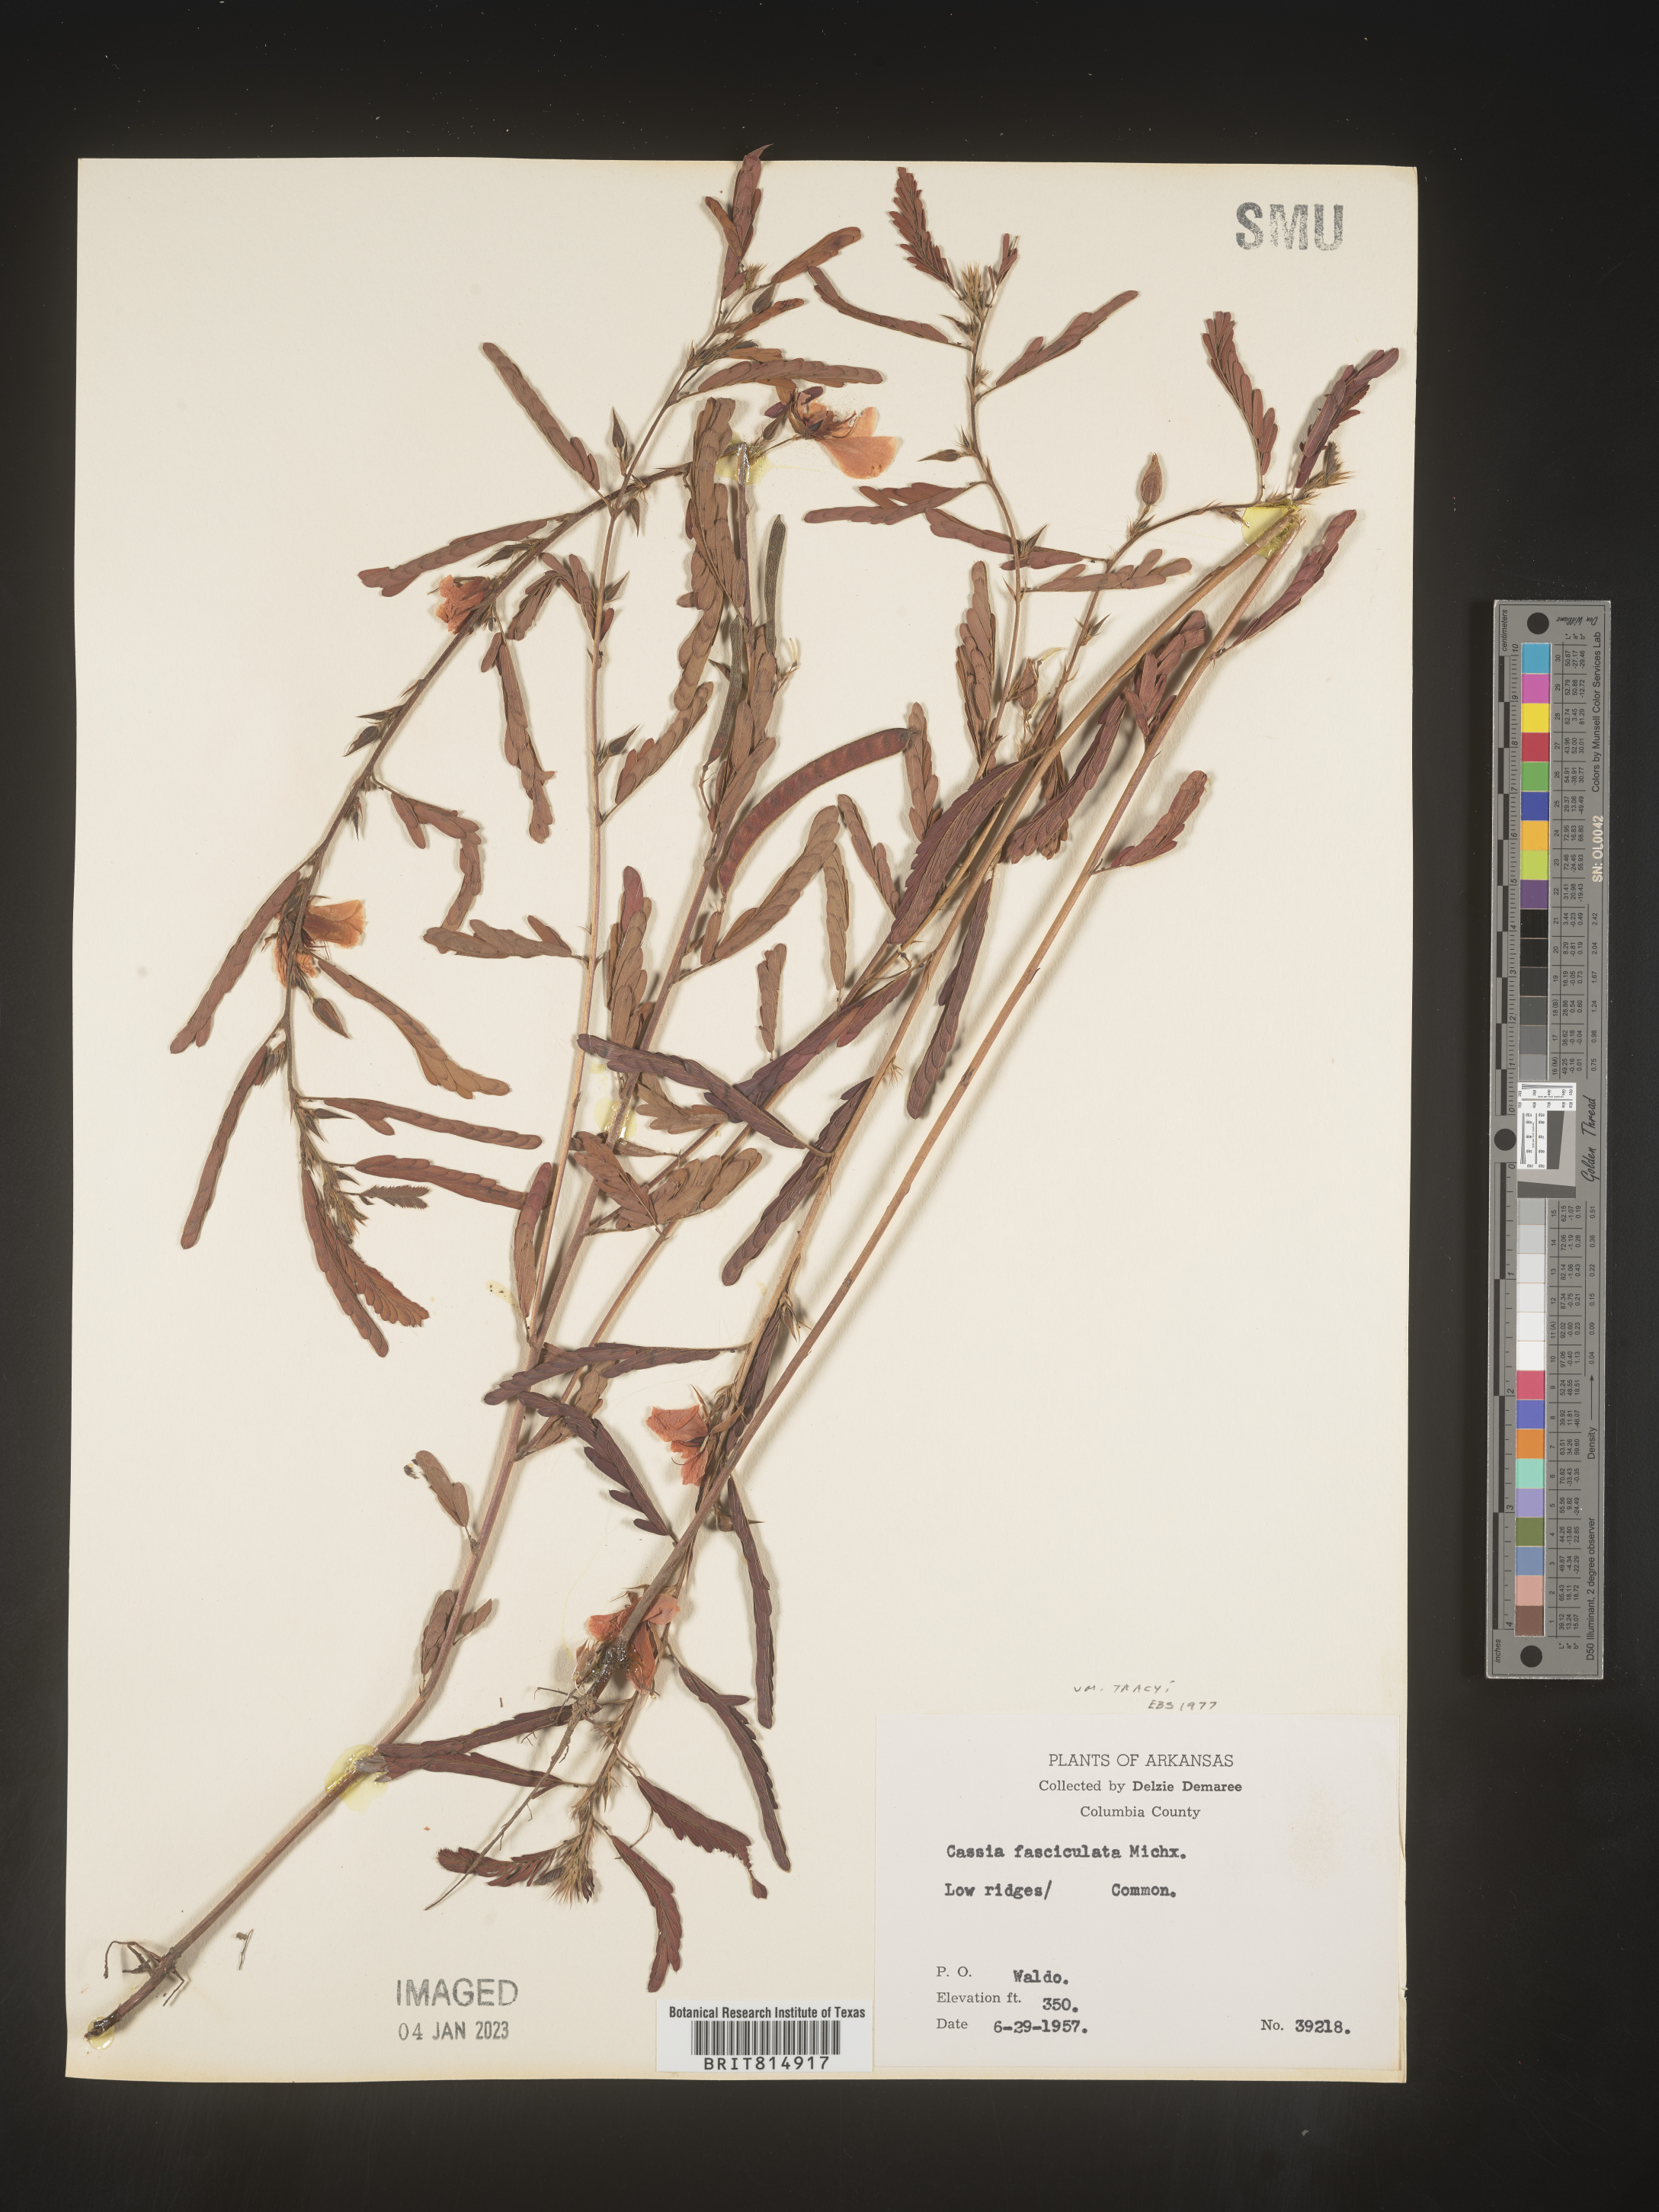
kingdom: Plantae
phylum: Tracheophyta
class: Magnoliopsida
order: Fabales
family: Fabaceae
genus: Chamaecrista
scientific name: Chamaecrista fasciculata
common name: Golden cassia
